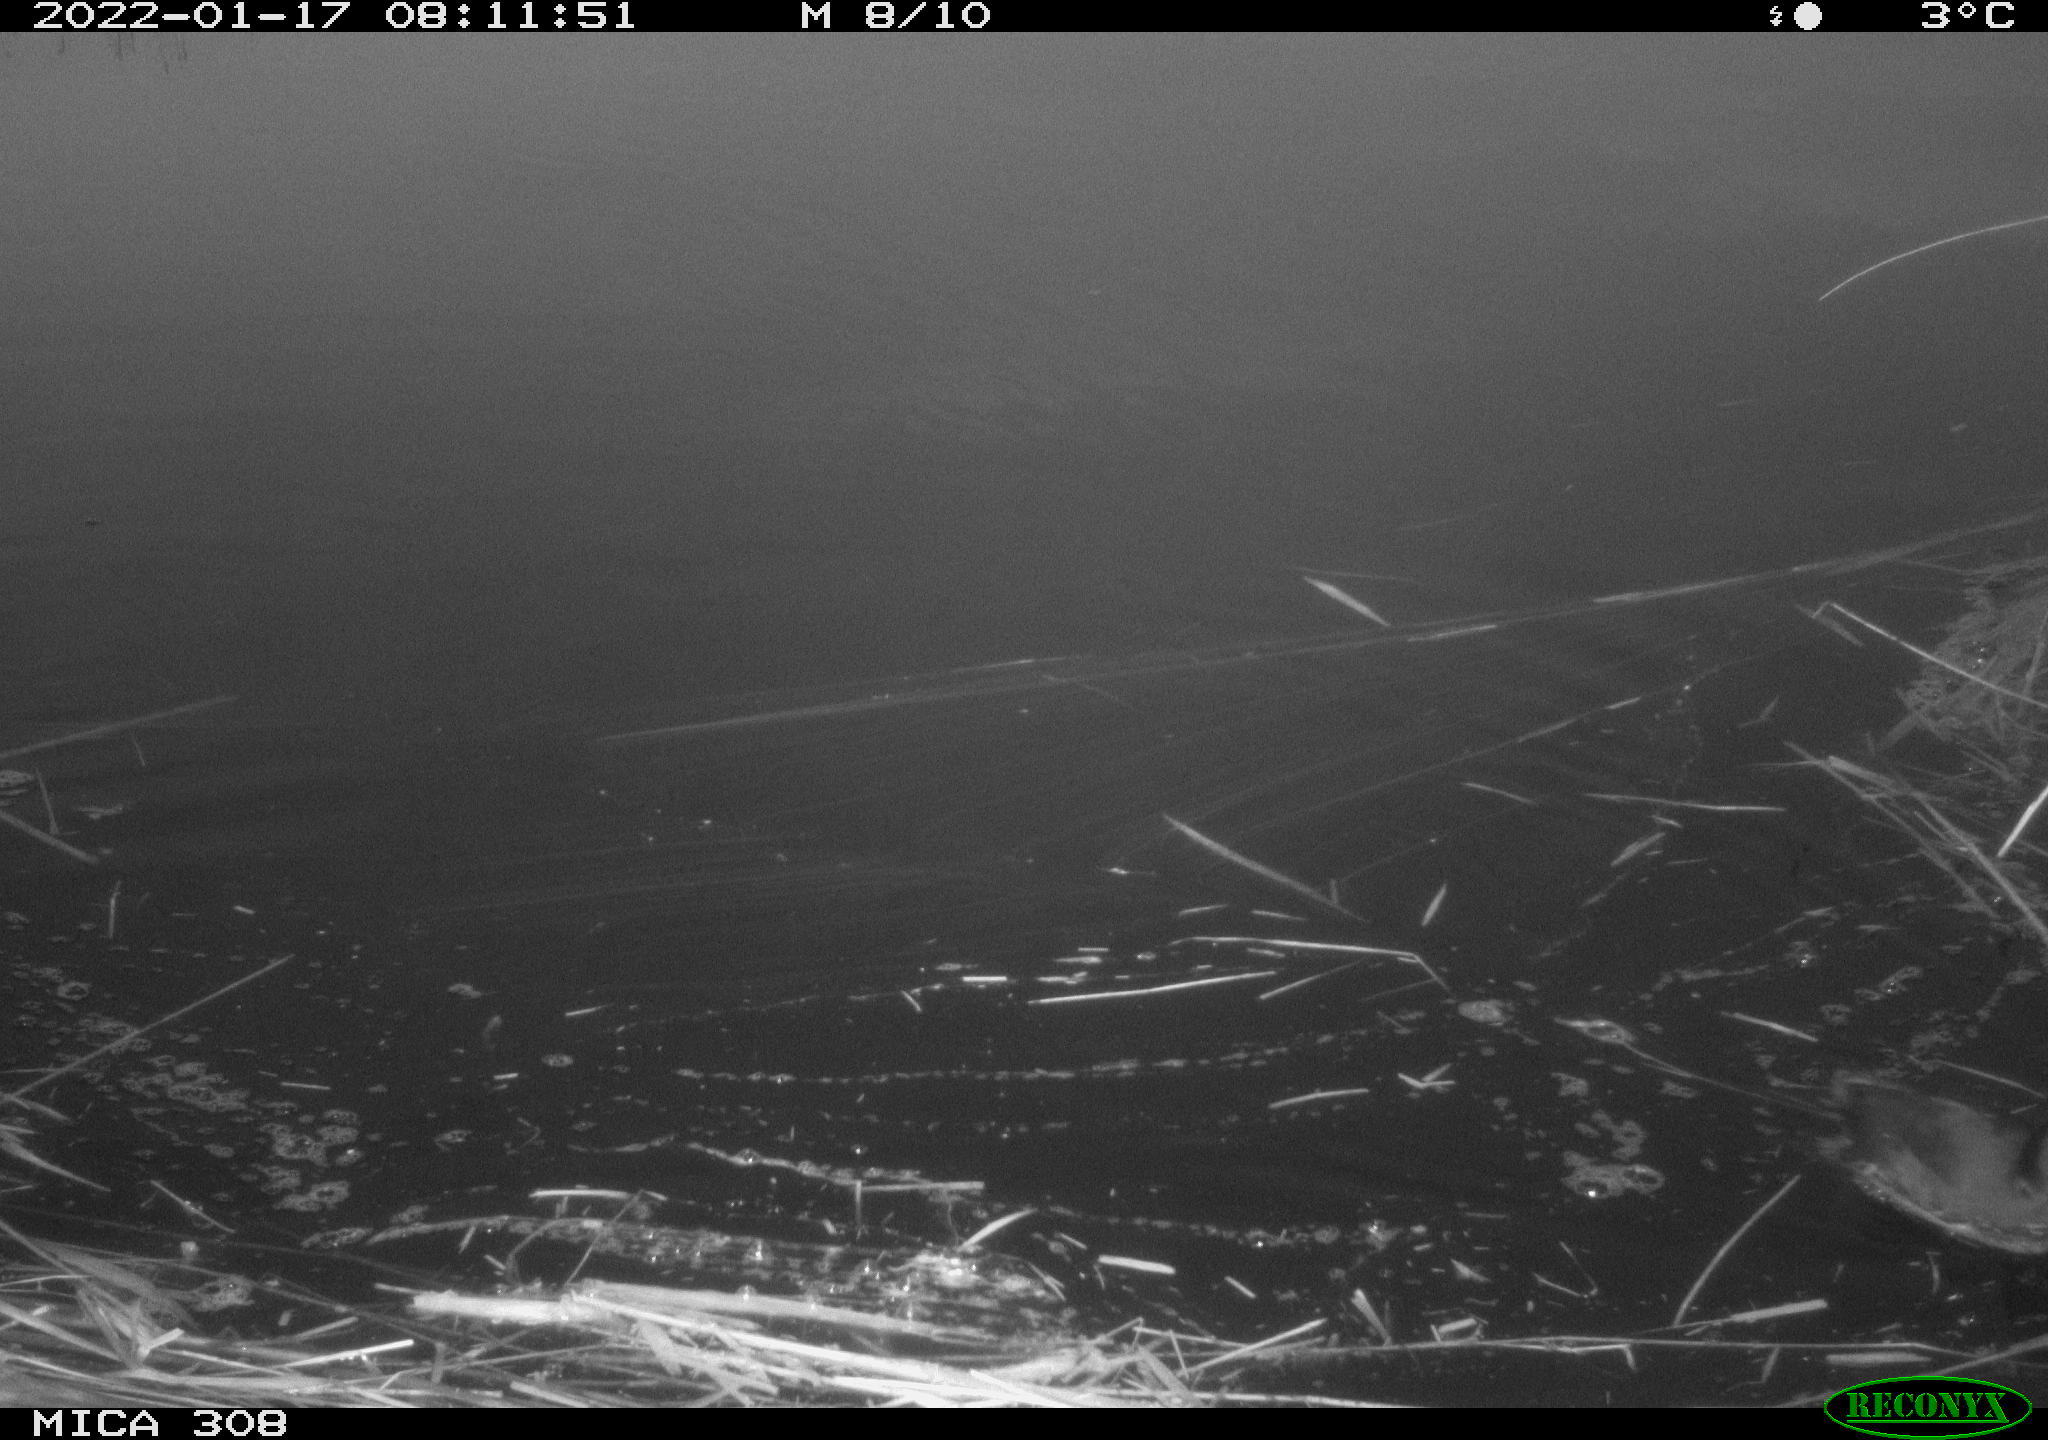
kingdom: Animalia
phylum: Chordata
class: Aves
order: Gruiformes
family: Rallidae
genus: Gallinula
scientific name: Gallinula chloropus
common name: Common moorhen
